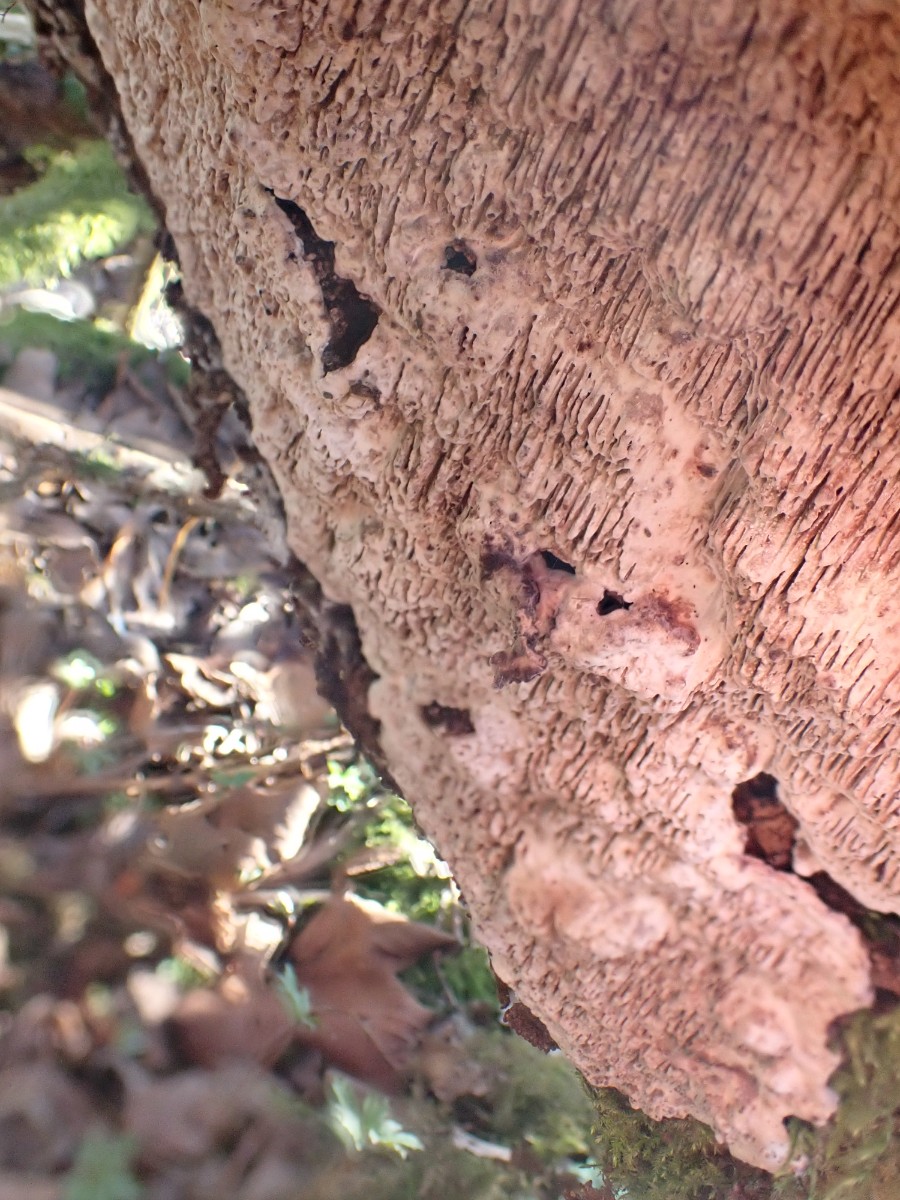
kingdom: Fungi
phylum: Basidiomycota
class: Agaricomycetes
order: Polyporales
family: Polyporaceae
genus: Podofomes
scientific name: Podofomes mollis
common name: blød begporesvamp
